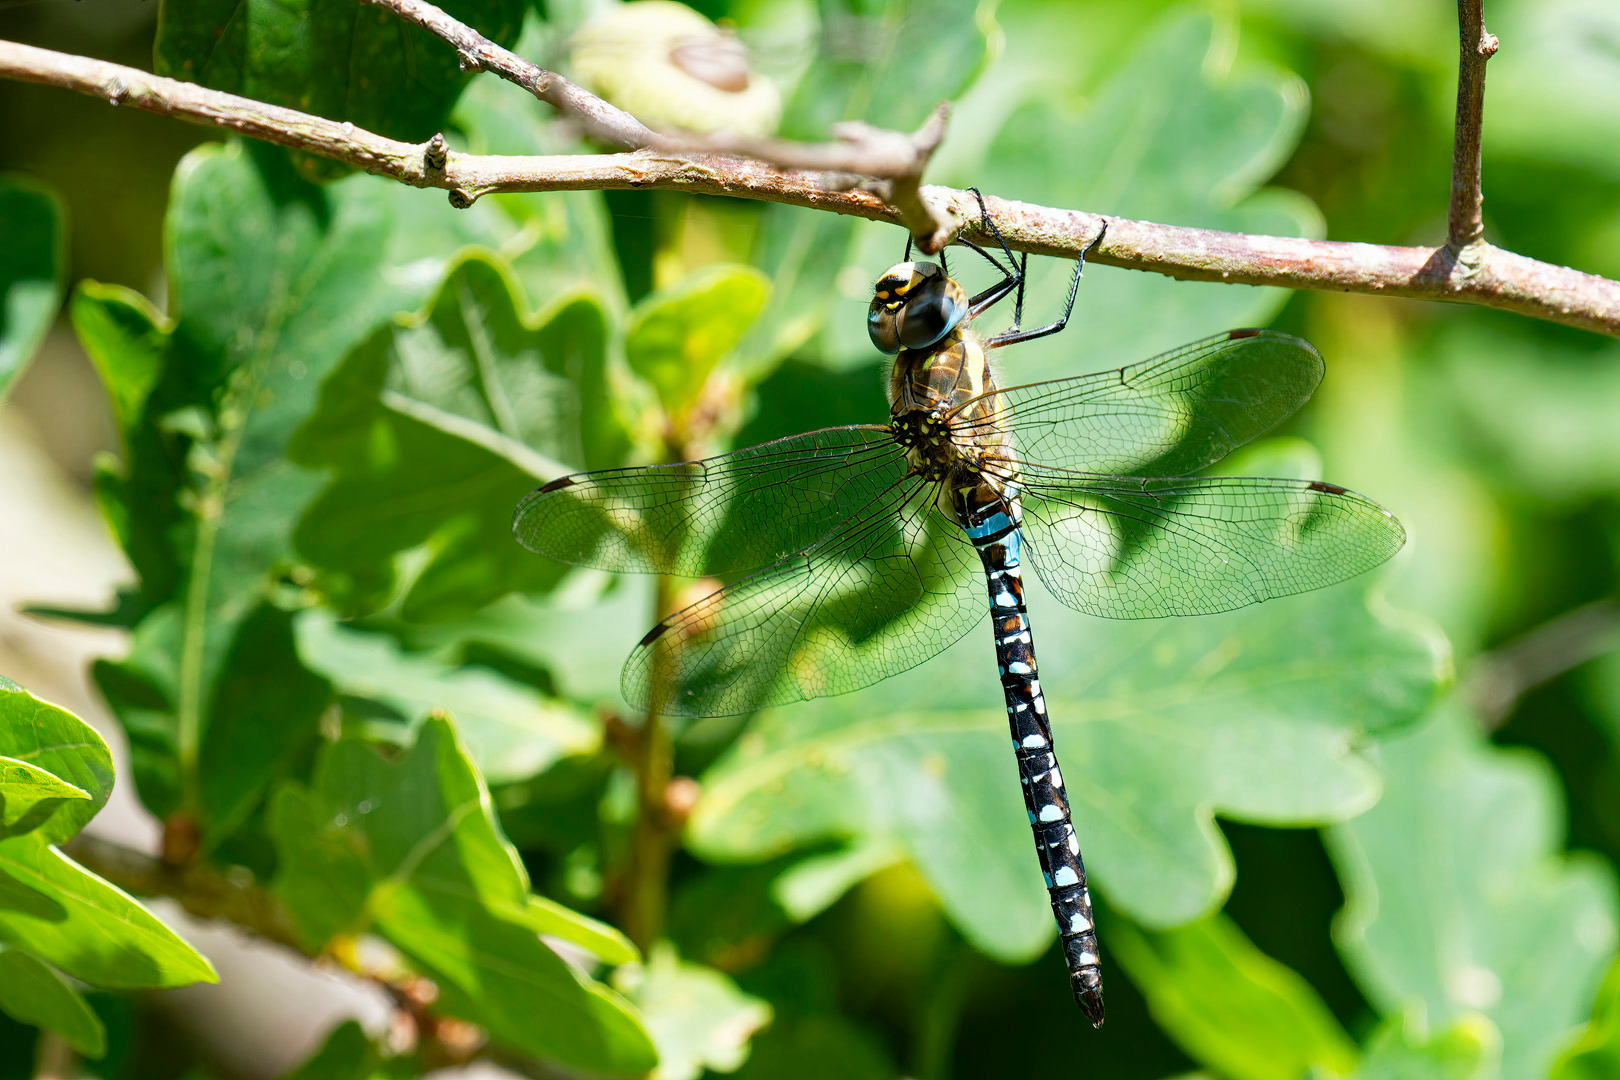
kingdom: Animalia
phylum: Arthropoda
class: Insecta
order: Odonata
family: Aeshnidae
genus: Aeshna
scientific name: Aeshna mixta
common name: Efterårs-mosaikguldsmed
